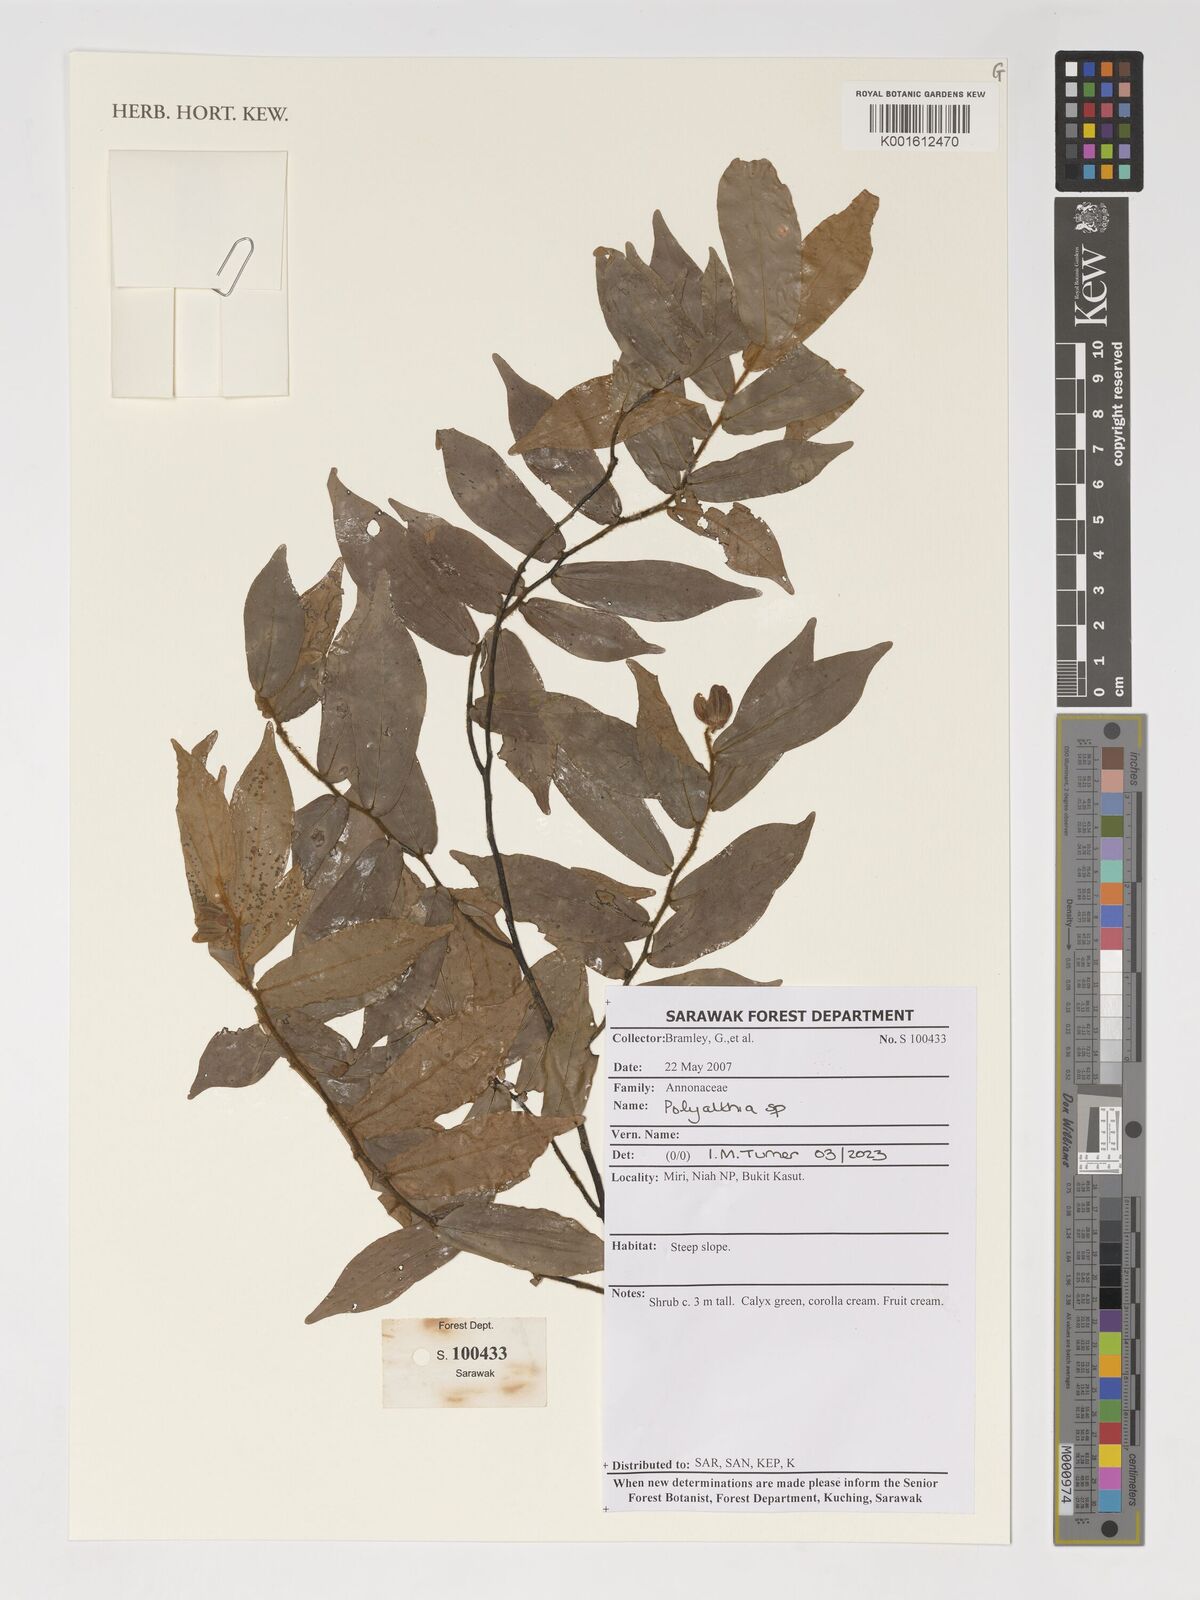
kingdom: Plantae
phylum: Tracheophyta
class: Magnoliopsida
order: Magnoliales
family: Annonaceae
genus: Polyalthia
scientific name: Polyalthia
